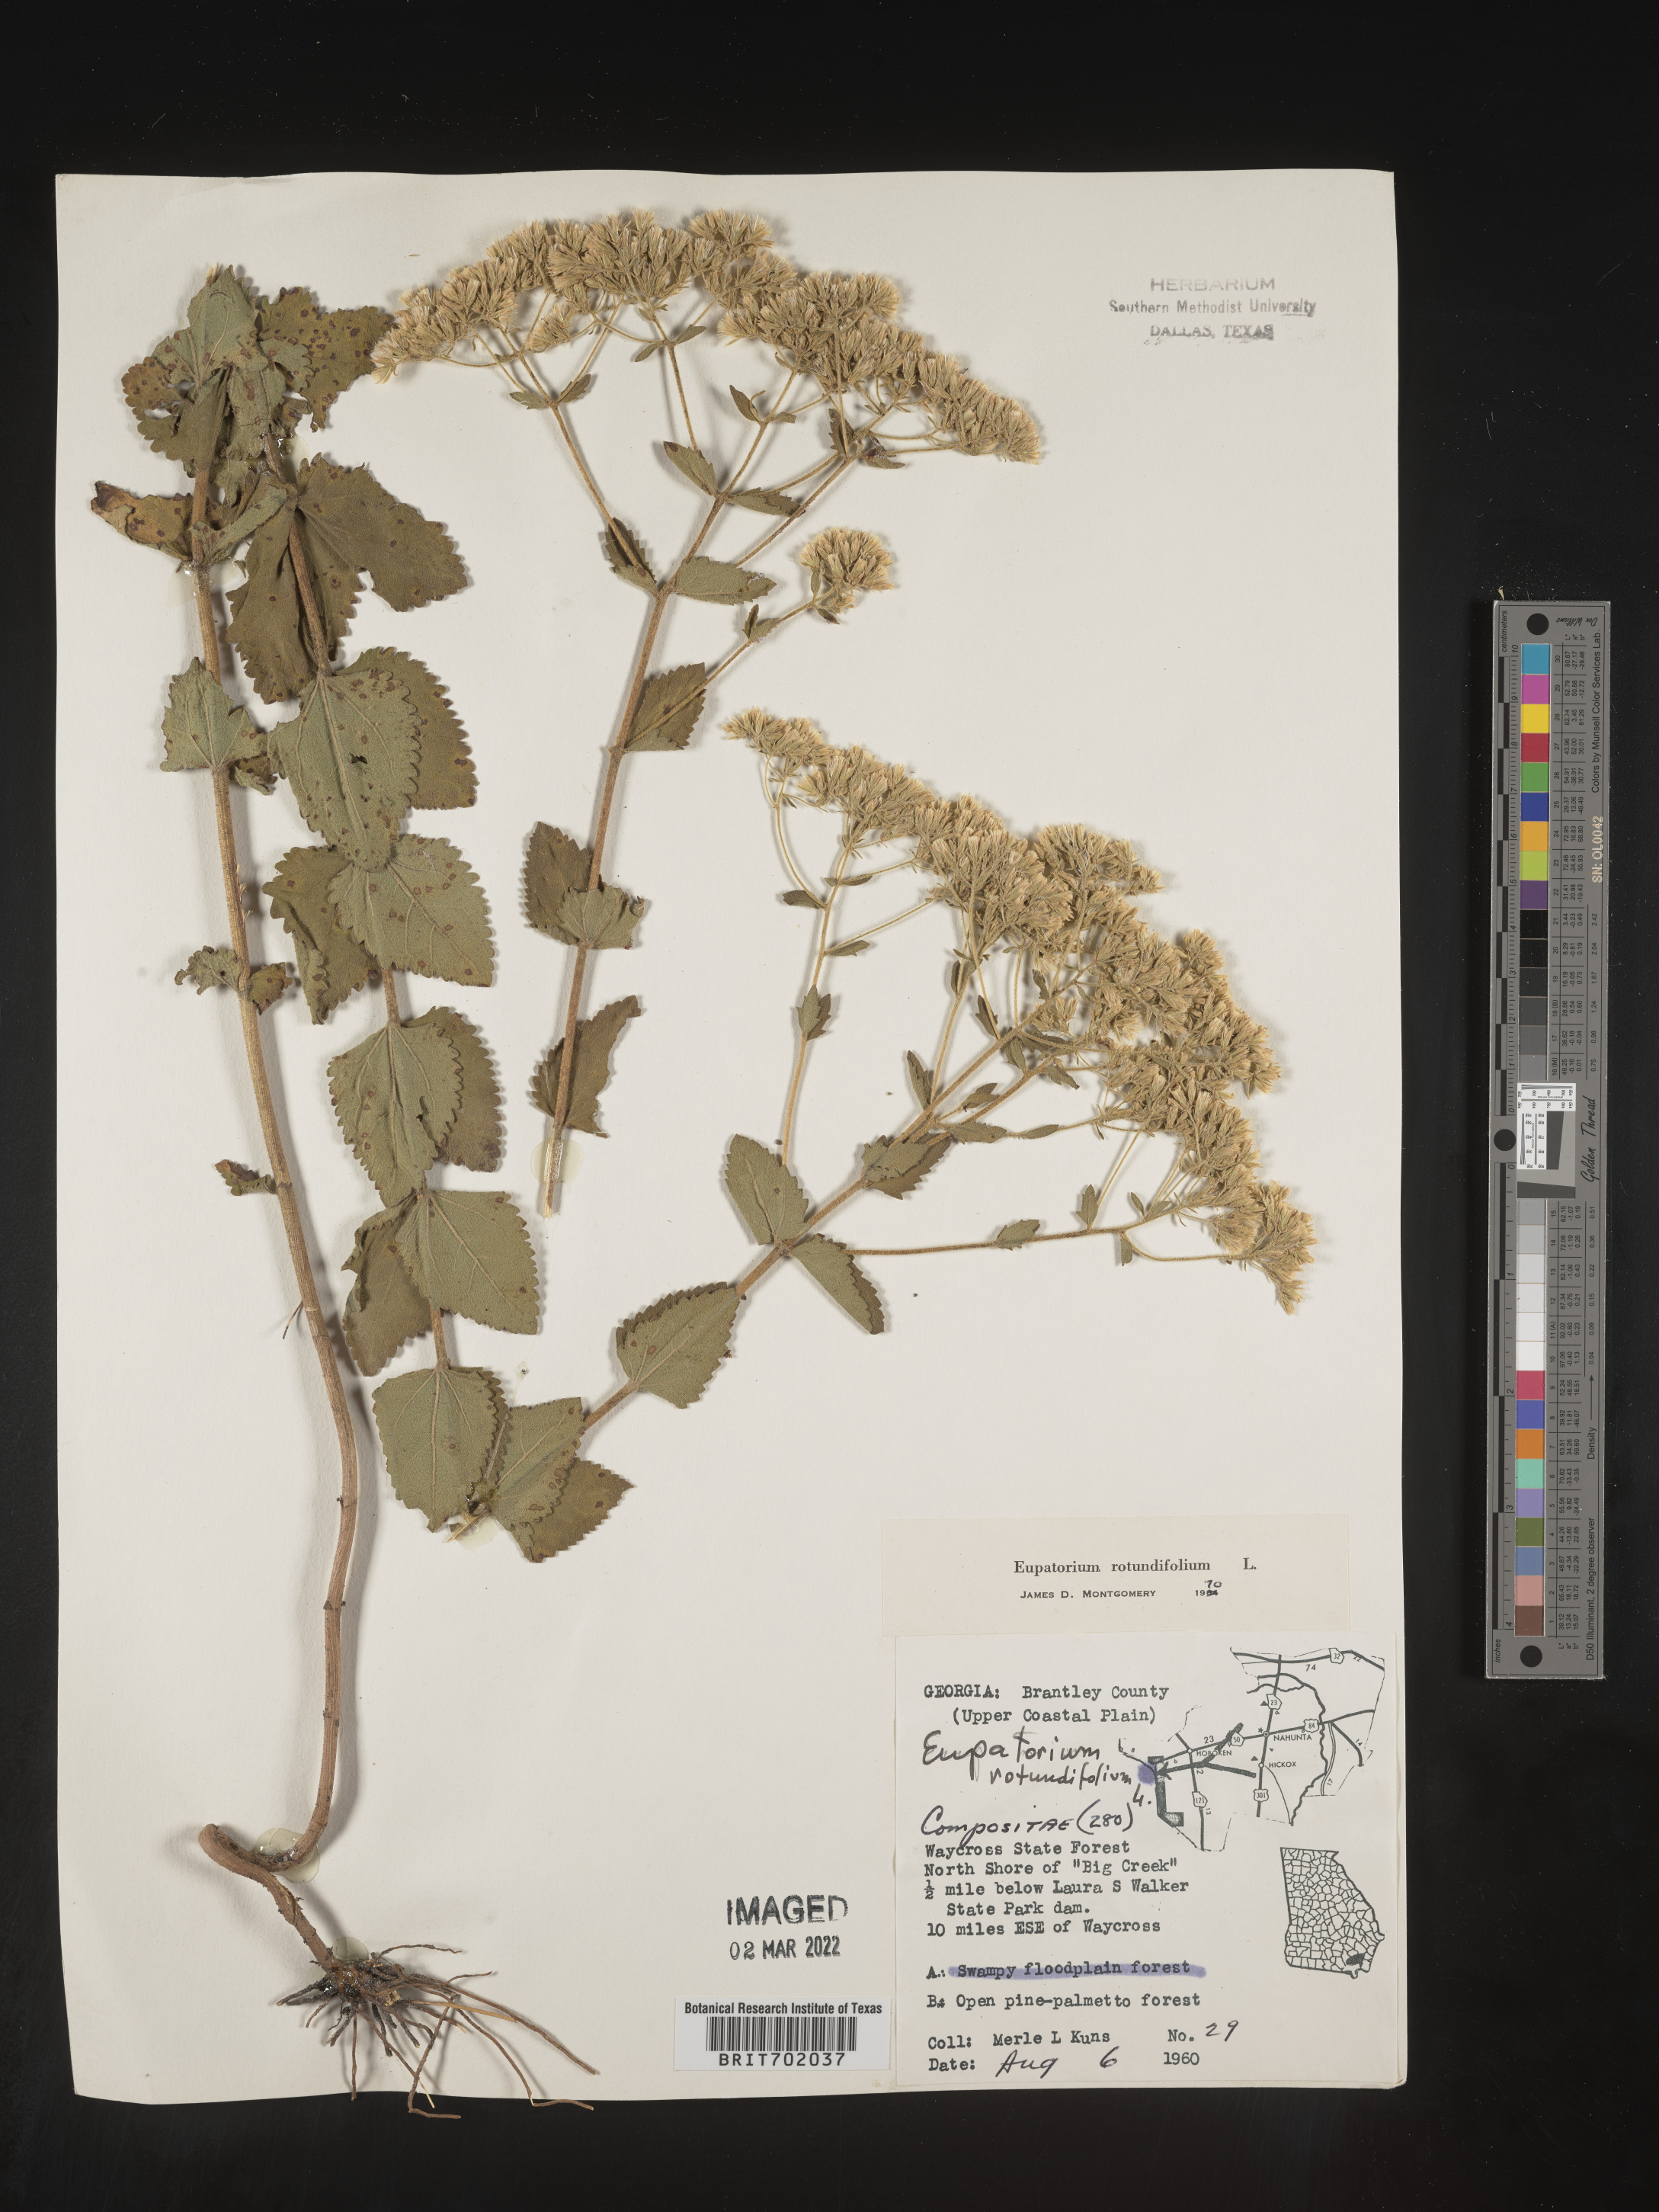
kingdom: Plantae
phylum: Tracheophyta
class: Magnoliopsida
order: Asterales
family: Asteraceae
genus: Eupatorium
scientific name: Eupatorium rotundifolium
